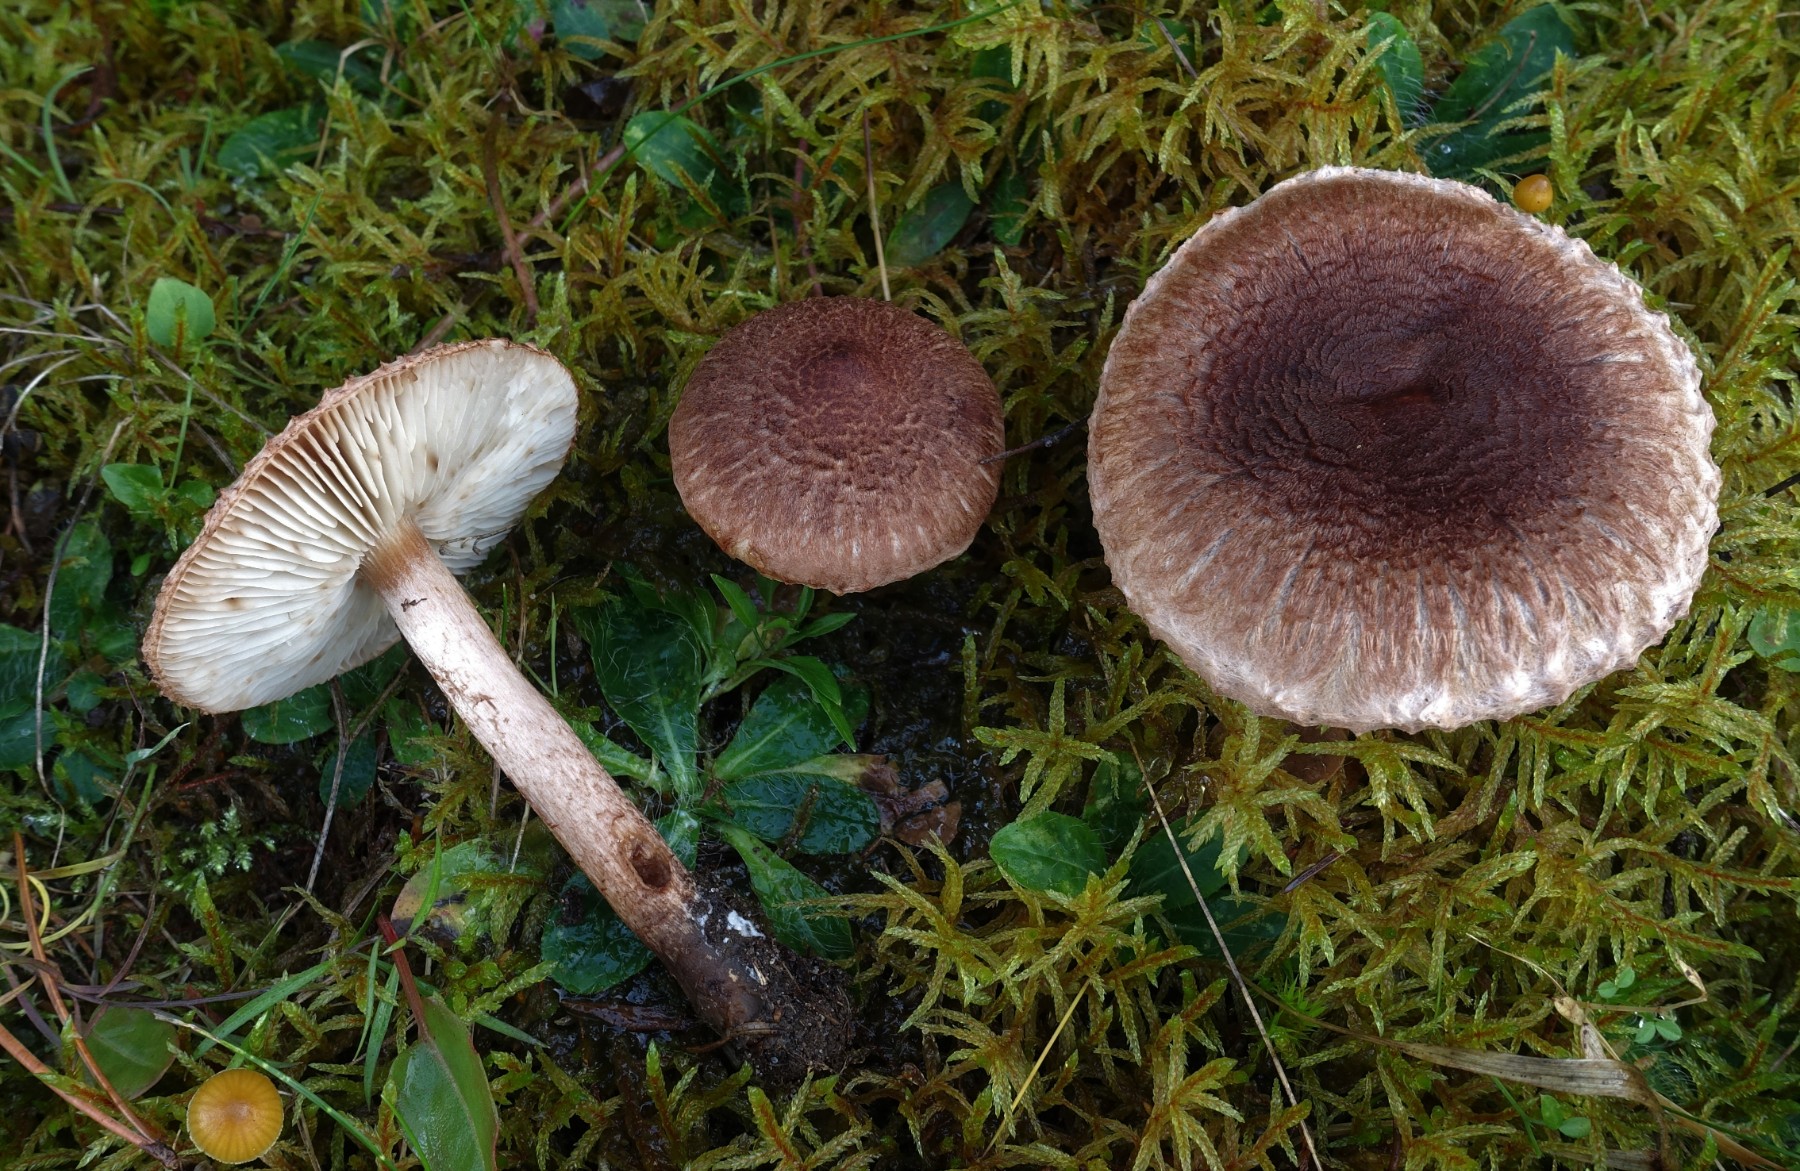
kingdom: Fungi
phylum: Basidiomycota
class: Agaricomycetes
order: Agaricales
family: Tricholomataceae
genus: Tricholoma
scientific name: Tricholoma vaccinum
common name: ko-ridderhat
